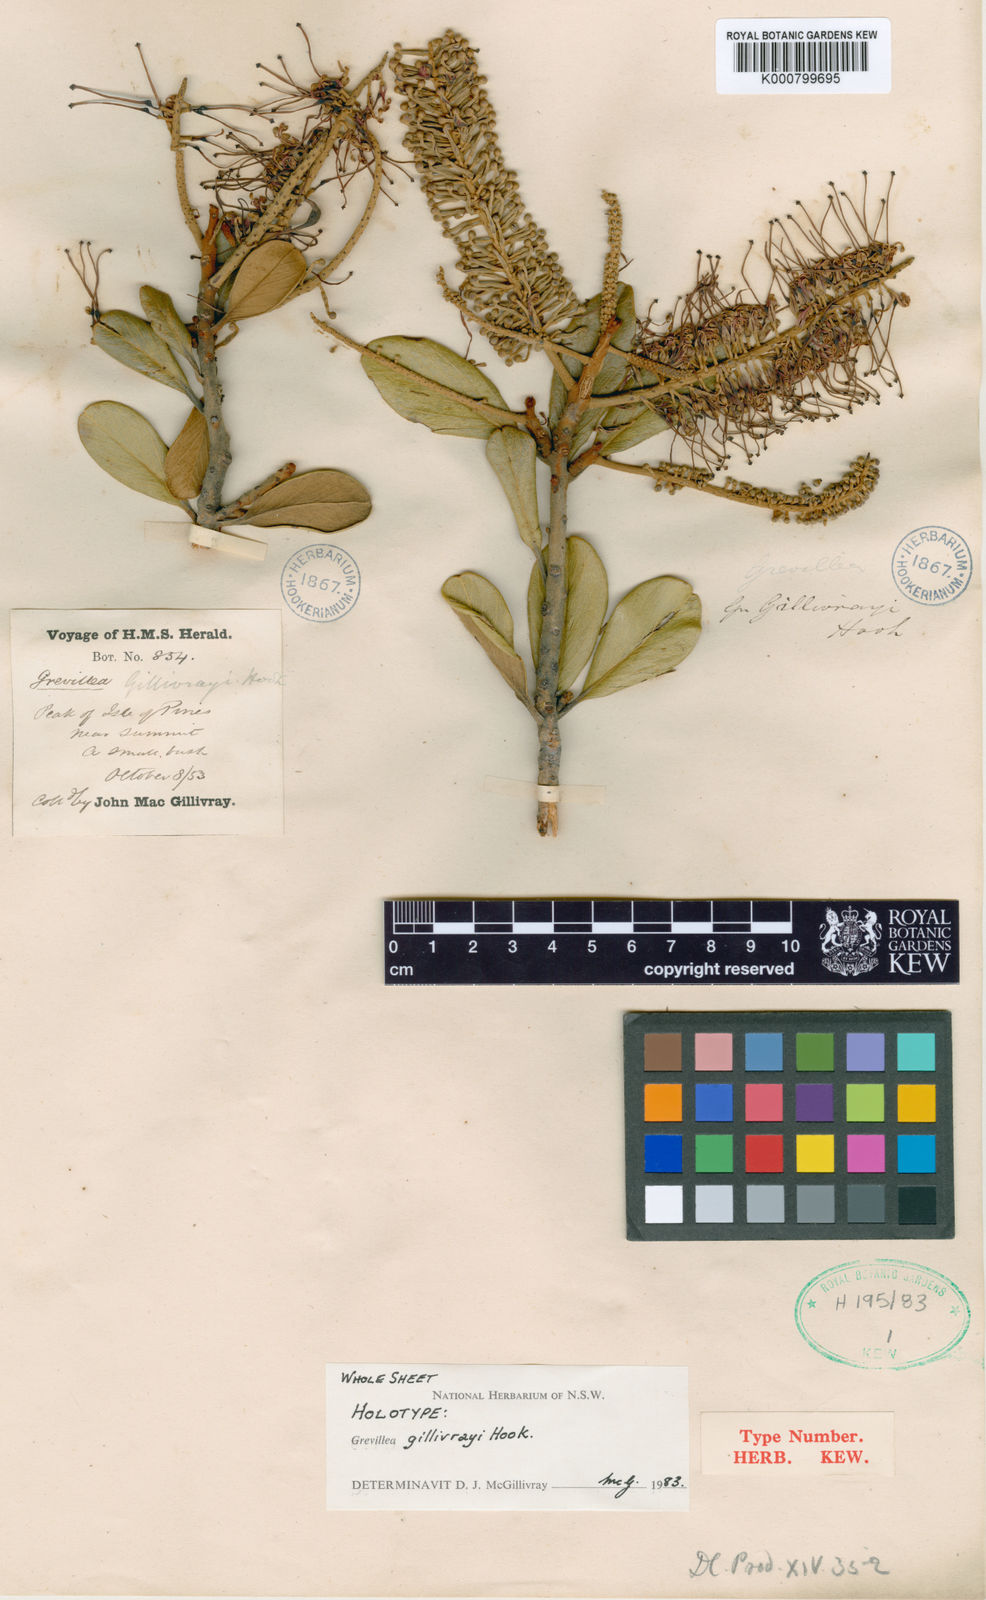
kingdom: Plantae
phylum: Tracheophyta
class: Magnoliopsida
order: Proteales
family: Proteaceae
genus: Grevillea
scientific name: Grevillea gillivrayi
